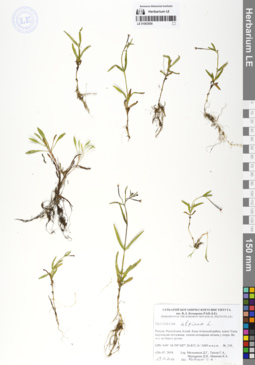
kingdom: Plantae
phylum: Tracheophyta
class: Magnoliopsida
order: Myrtales
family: Onagraceae
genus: Epilobium
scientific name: Epilobium
